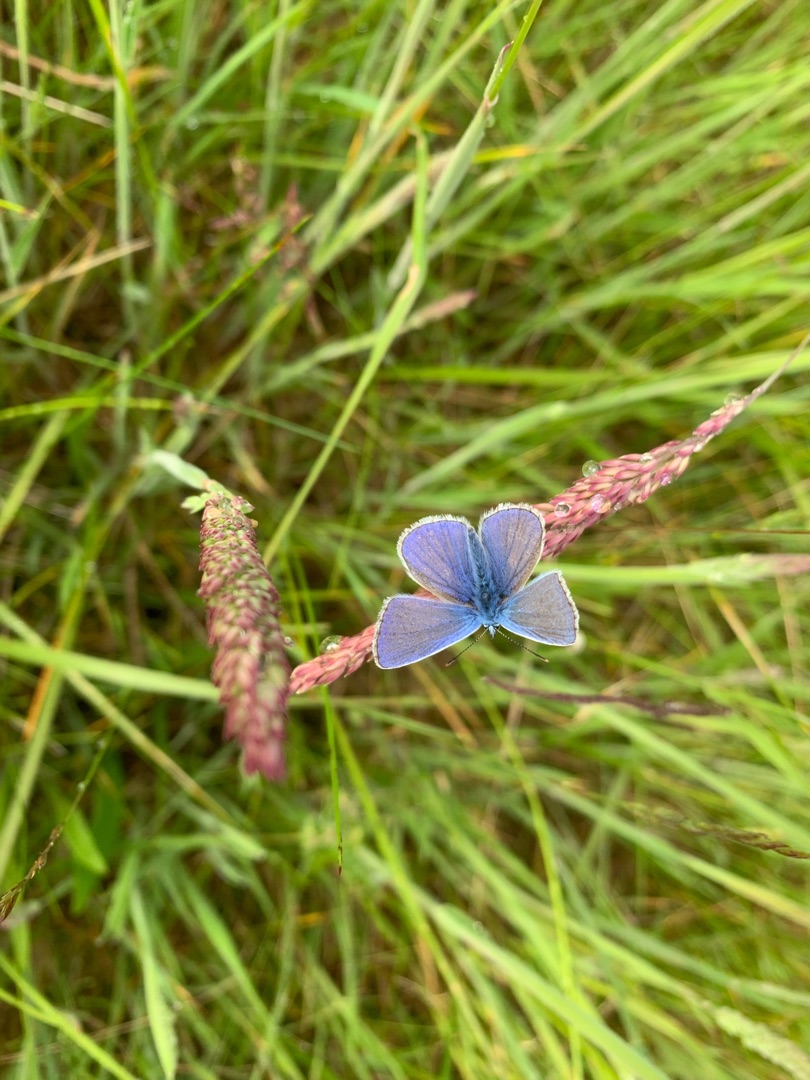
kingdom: Animalia
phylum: Arthropoda
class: Insecta
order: Lepidoptera
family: Lycaenidae
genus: Polyommatus
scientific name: Polyommatus icarus
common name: Almindelig blåfugl
